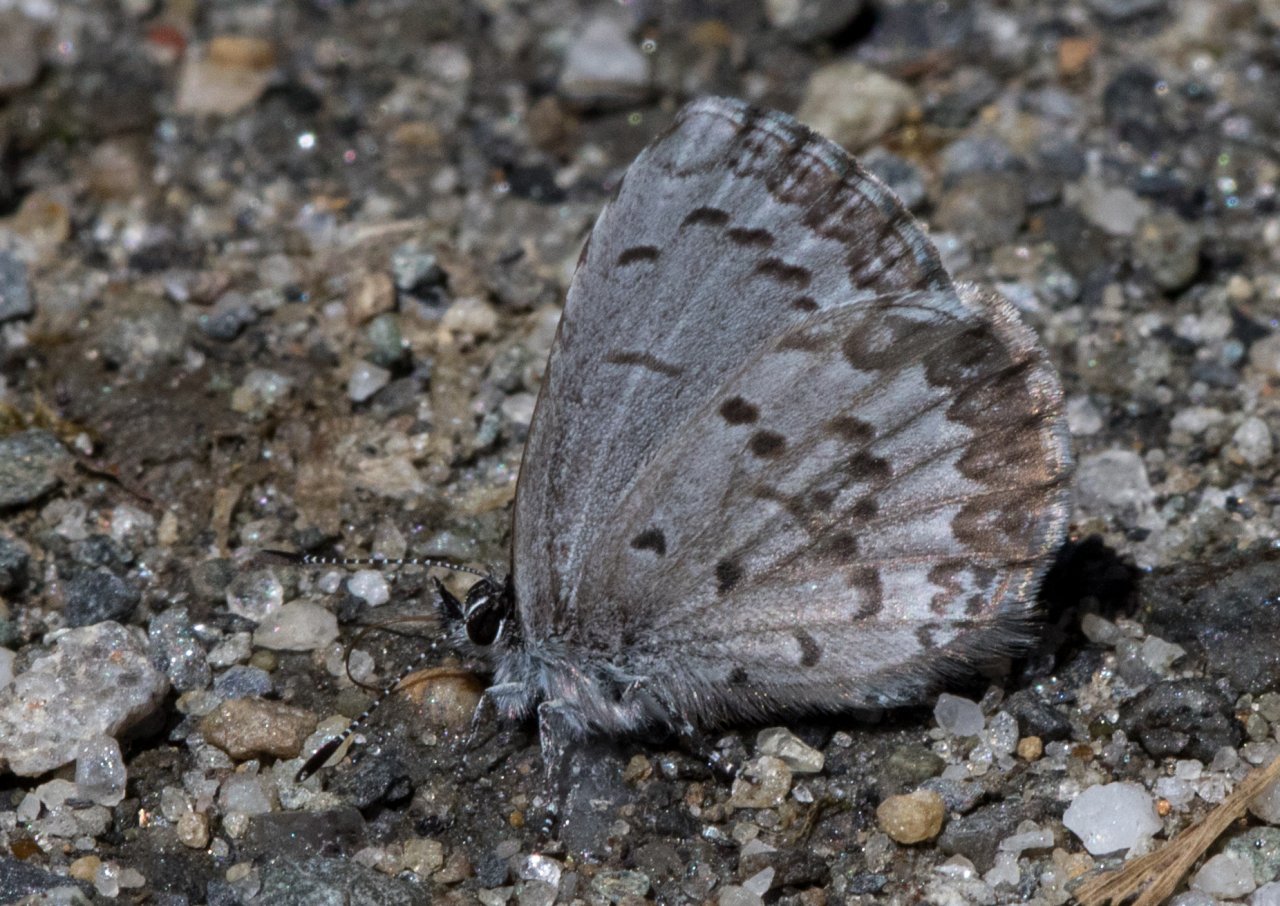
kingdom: Animalia
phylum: Arthropoda
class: Insecta
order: Lepidoptera
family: Lycaenidae
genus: Celastrina
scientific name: Celastrina lucia
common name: Northern Spring Azure
